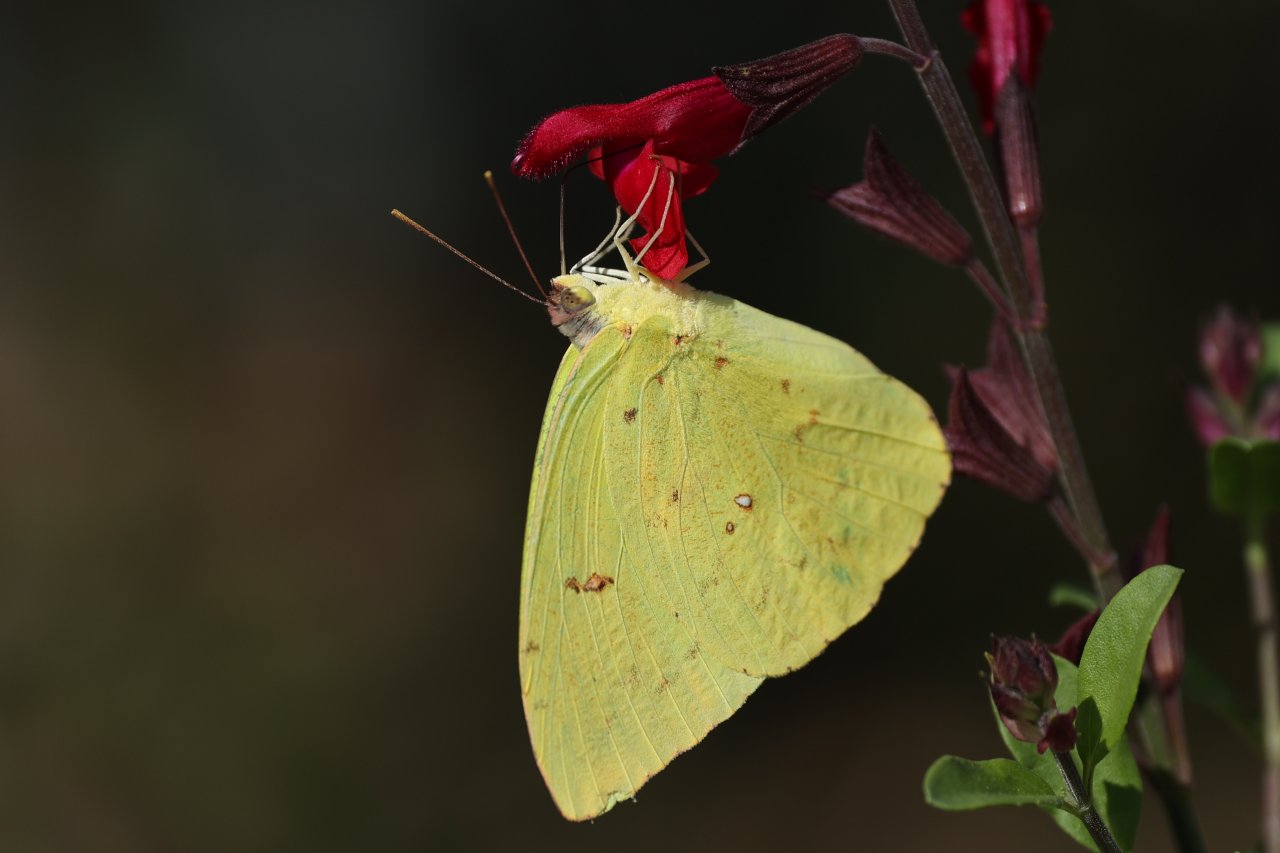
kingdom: Animalia
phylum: Arthropoda
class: Insecta
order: Lepidoptera
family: Pieridae
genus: Phoebis
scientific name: Phoebis sennae
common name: Cloudless Sulphur
